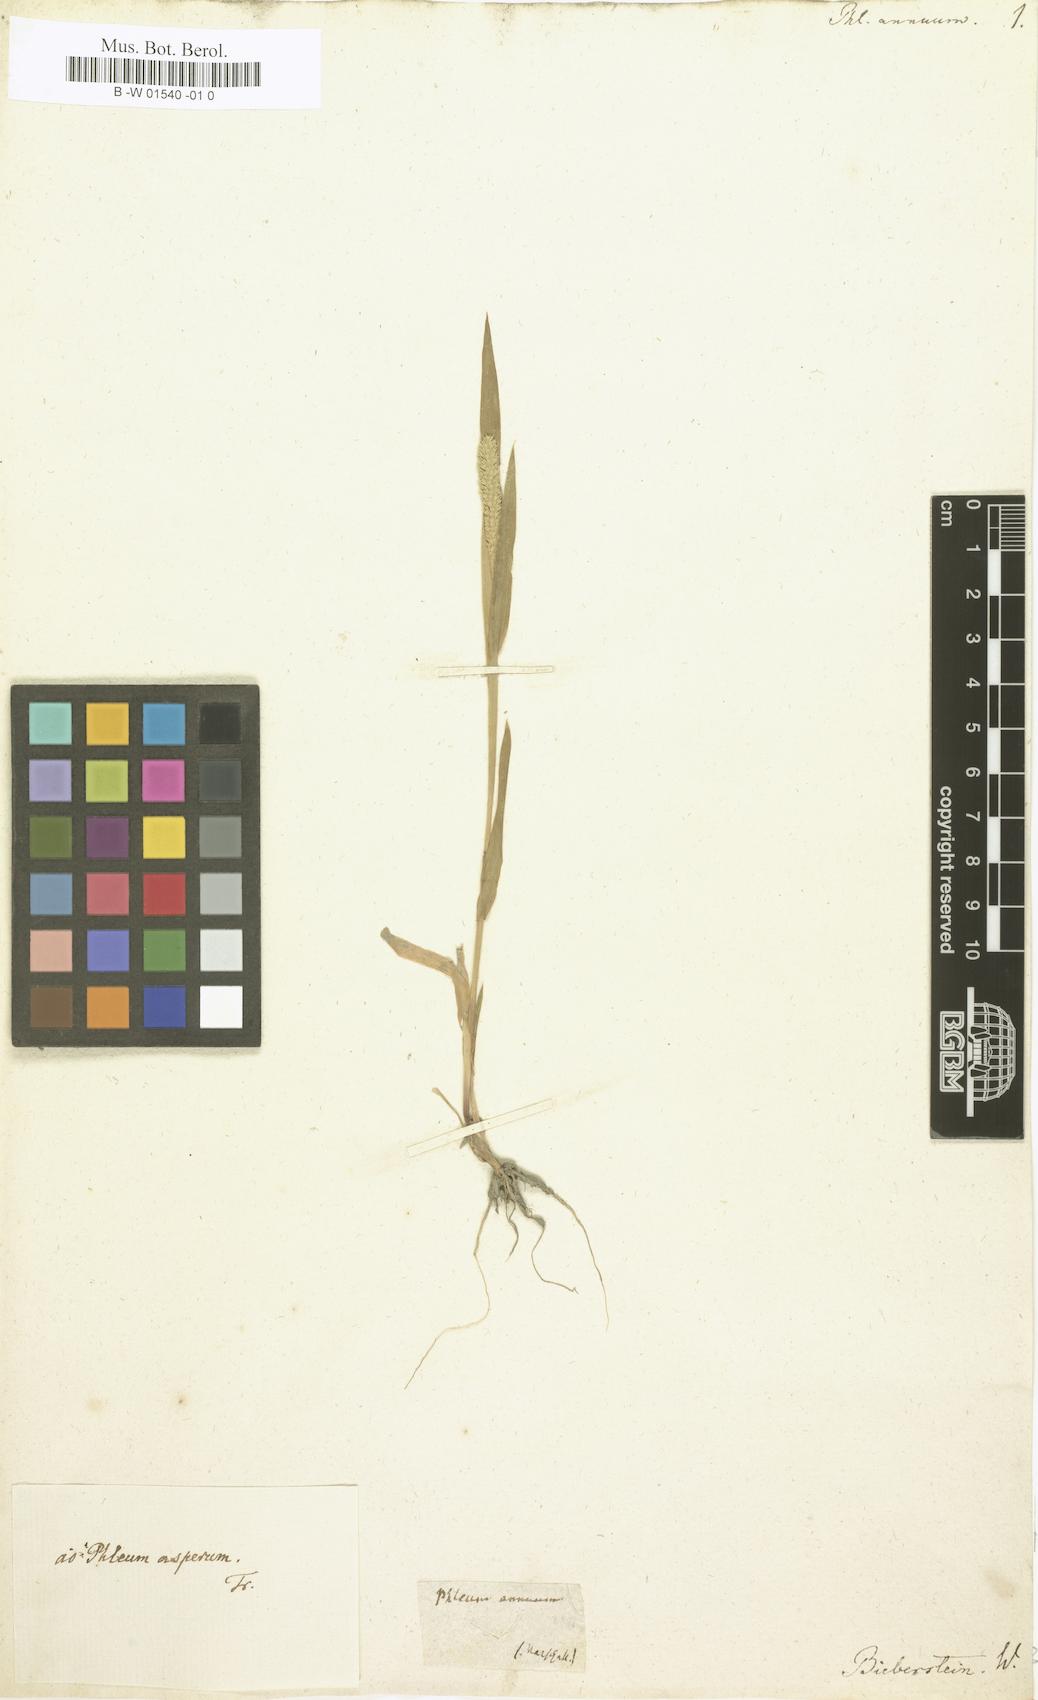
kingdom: Plantae
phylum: Tracheophyta
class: Liliopsida
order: Poales
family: Poaceae
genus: Phleum
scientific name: Phleum paniculatum
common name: British timothy
